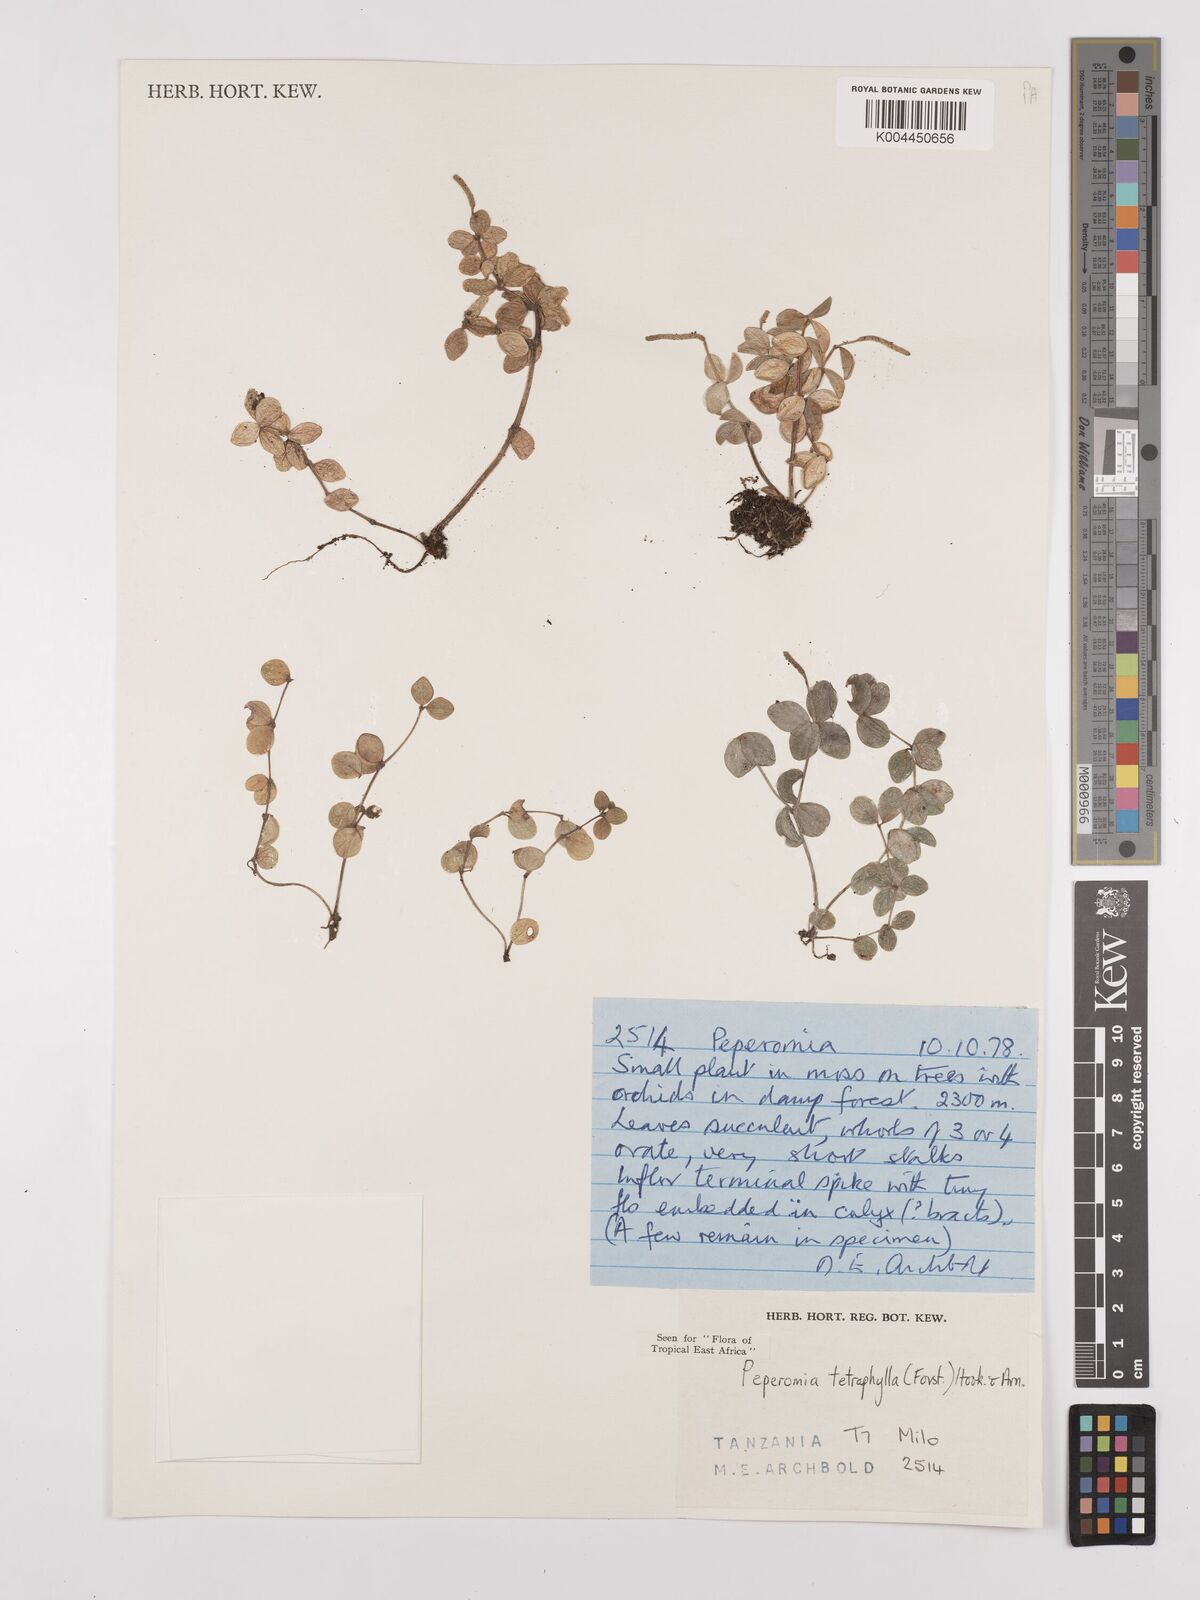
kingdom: Plantae
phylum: Tracheophyta
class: Magnoliopsida
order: Piperales
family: Piperaceae
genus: Peperomia
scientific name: Peperomia tetraphylla
